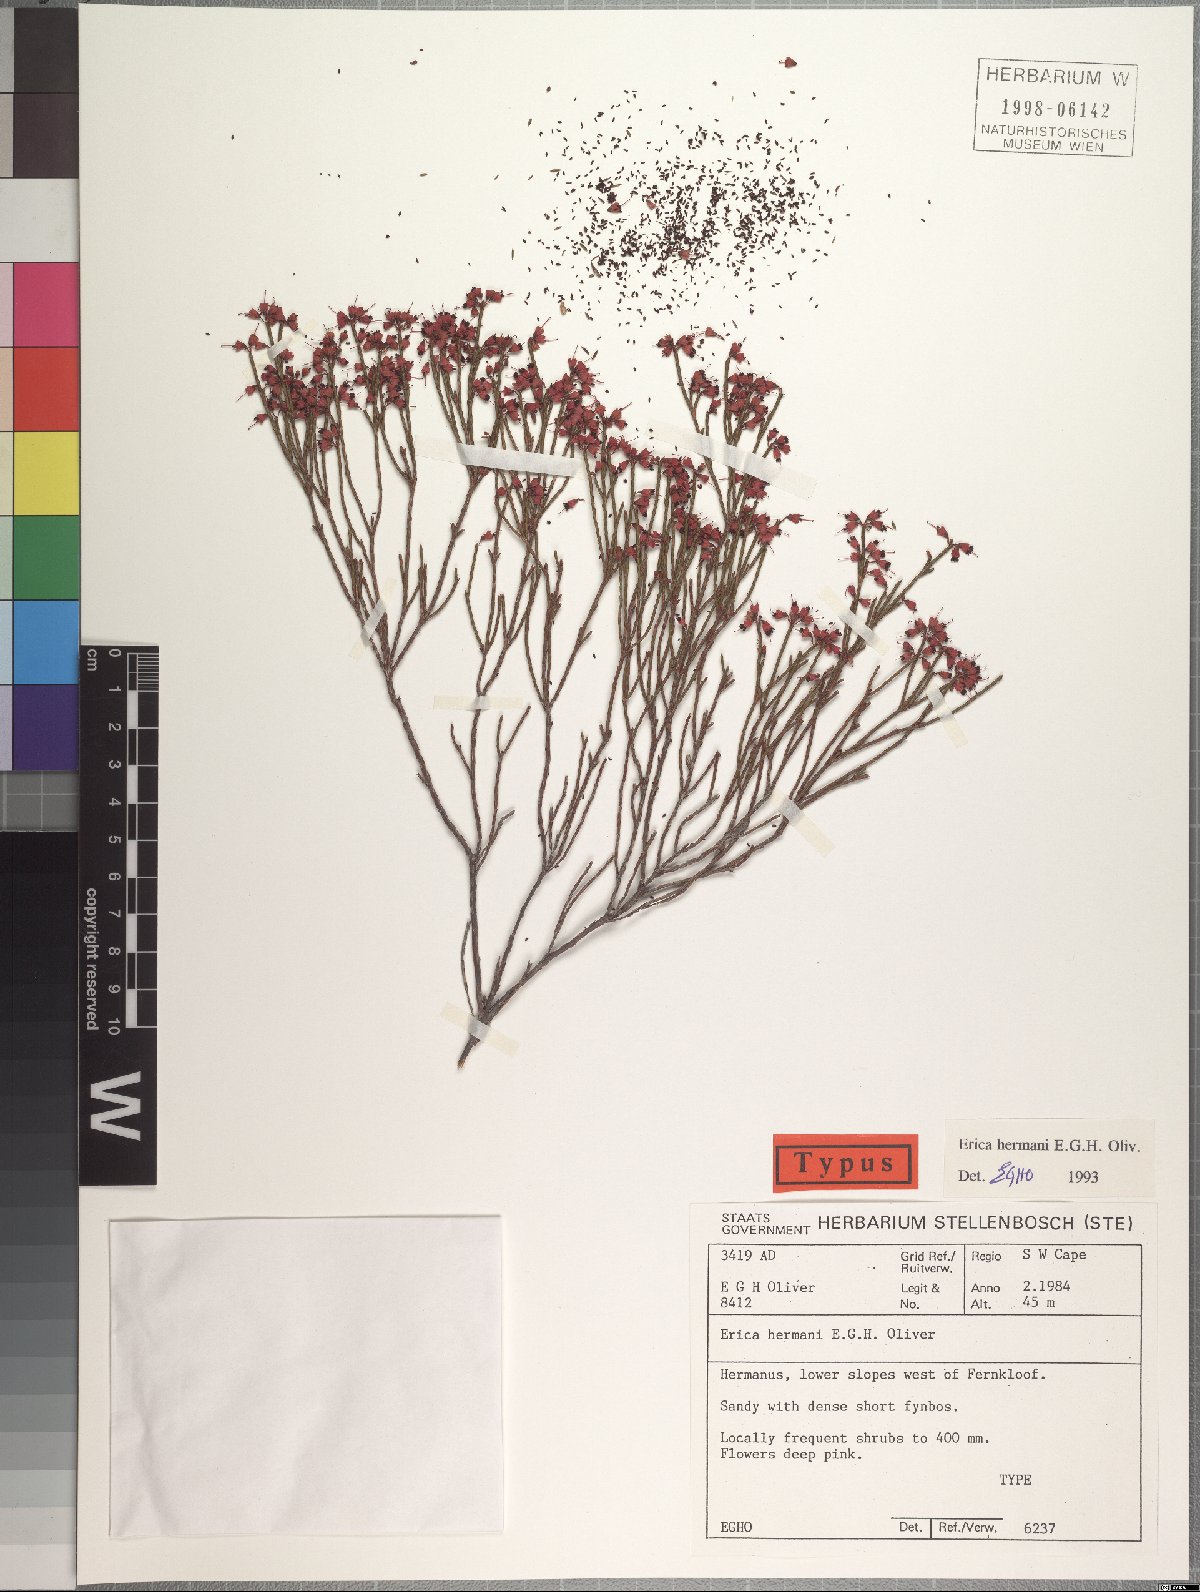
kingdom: Plantae
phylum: Tracheophyta
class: Magnoliopsida
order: Ericales
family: Ericaceae
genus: Erica
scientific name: Erica nematophylla
